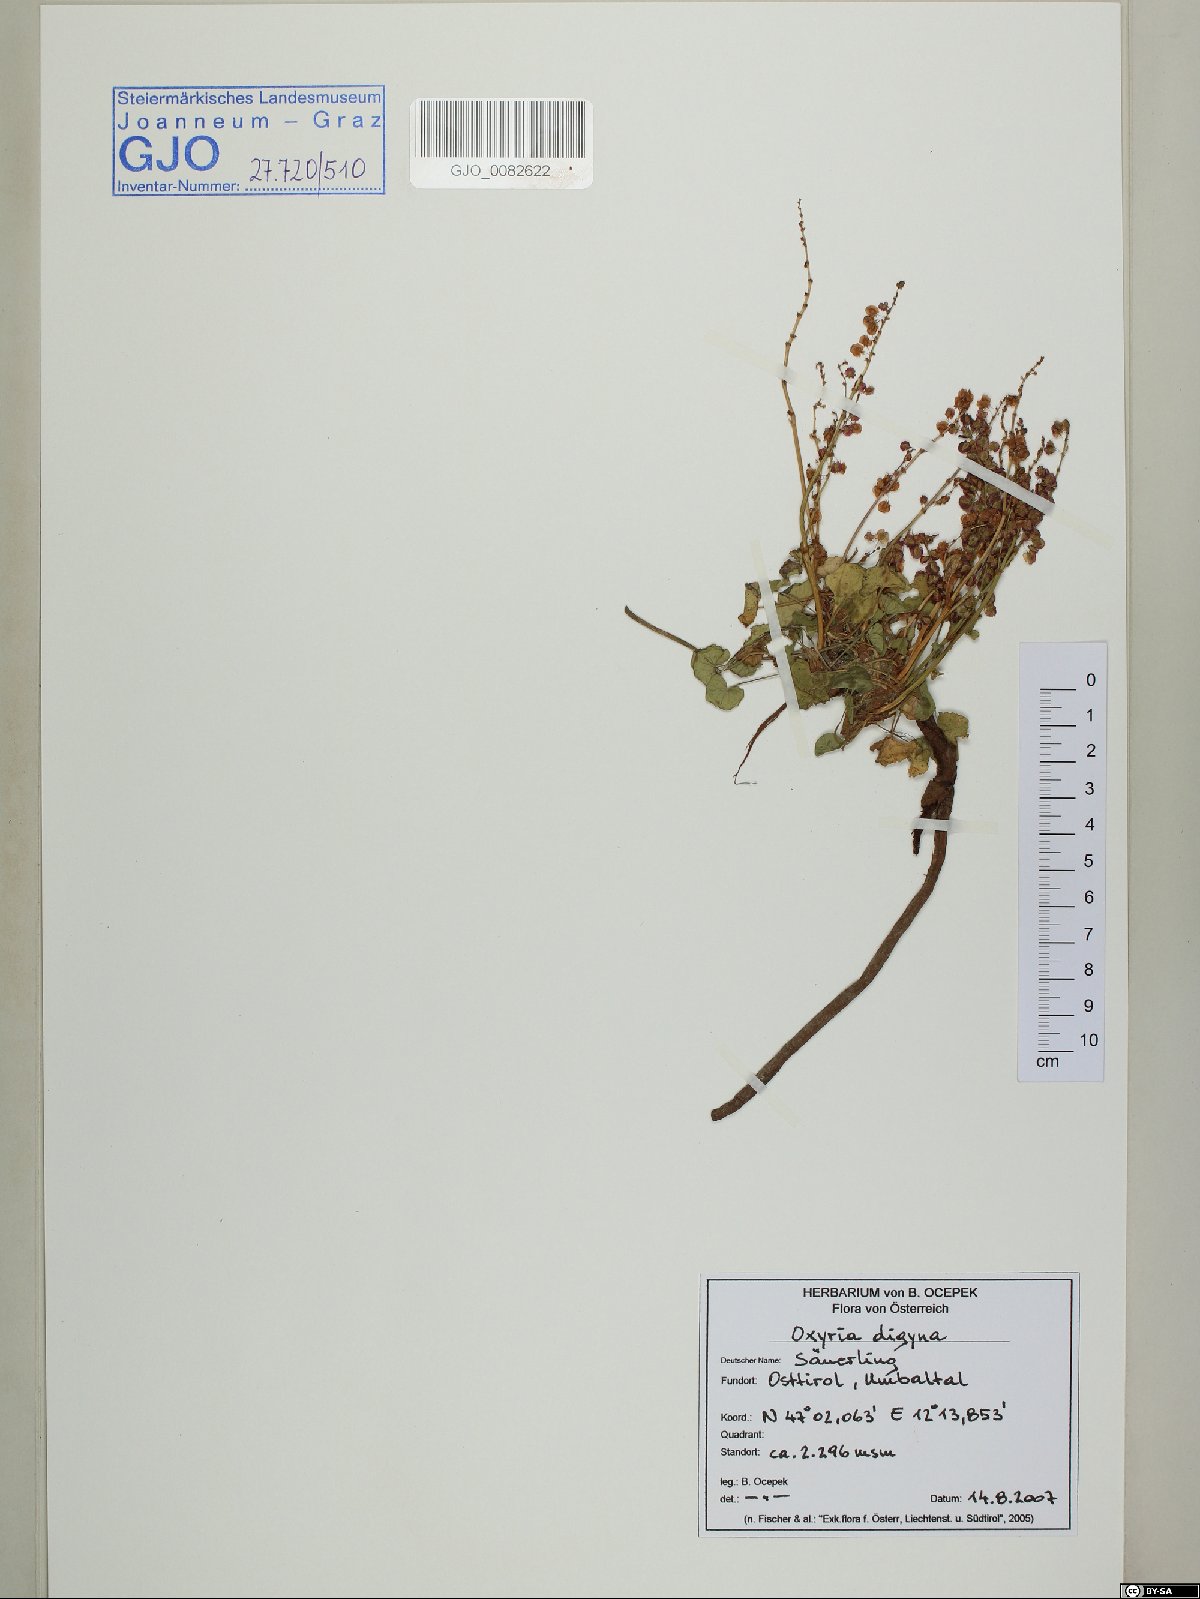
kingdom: Plantae
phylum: Tracheophyta
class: Magnoliopsida
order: Caryophyllales
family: Polygonaceae
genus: Oxyria
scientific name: Oxyria digyna
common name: Alpine mountain-sorrel
